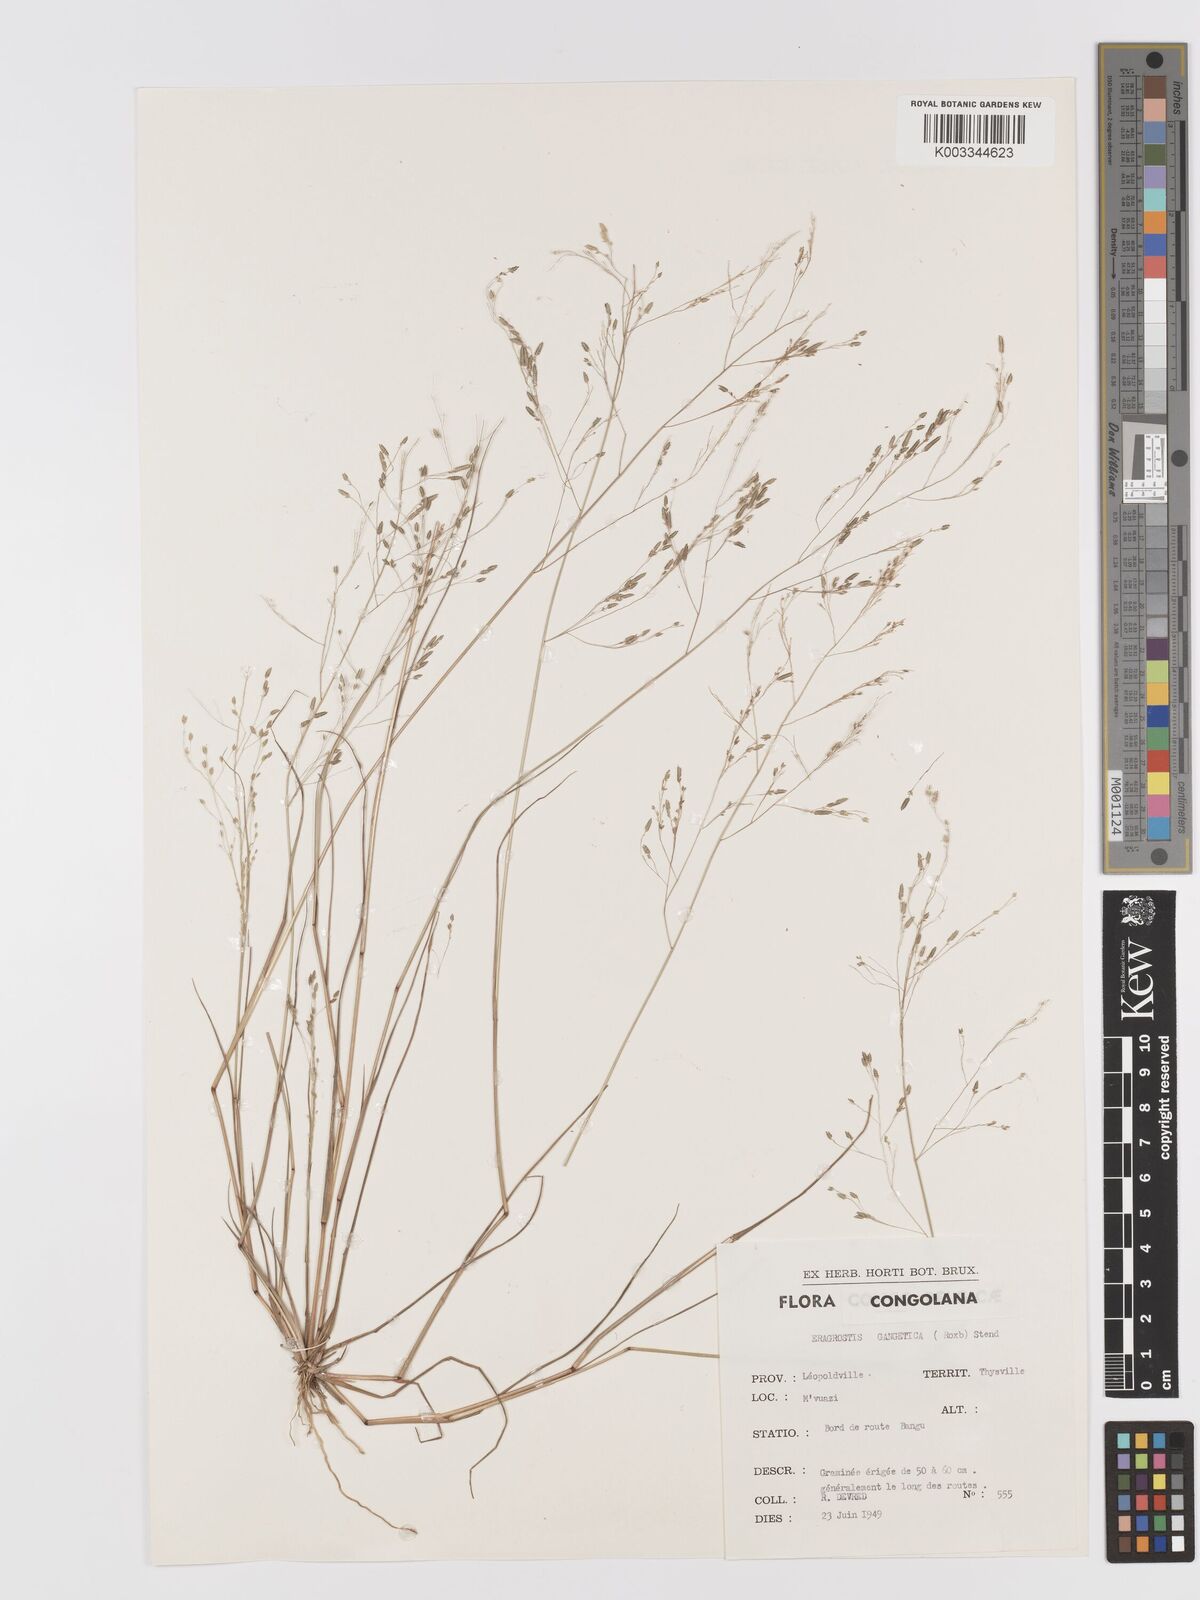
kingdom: Plantae
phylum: Tracheophyta
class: Liliopsida
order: Poales
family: Poaceae
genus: Eragrostis
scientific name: Eragrostis gangetica
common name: Slimflower lovegrass
